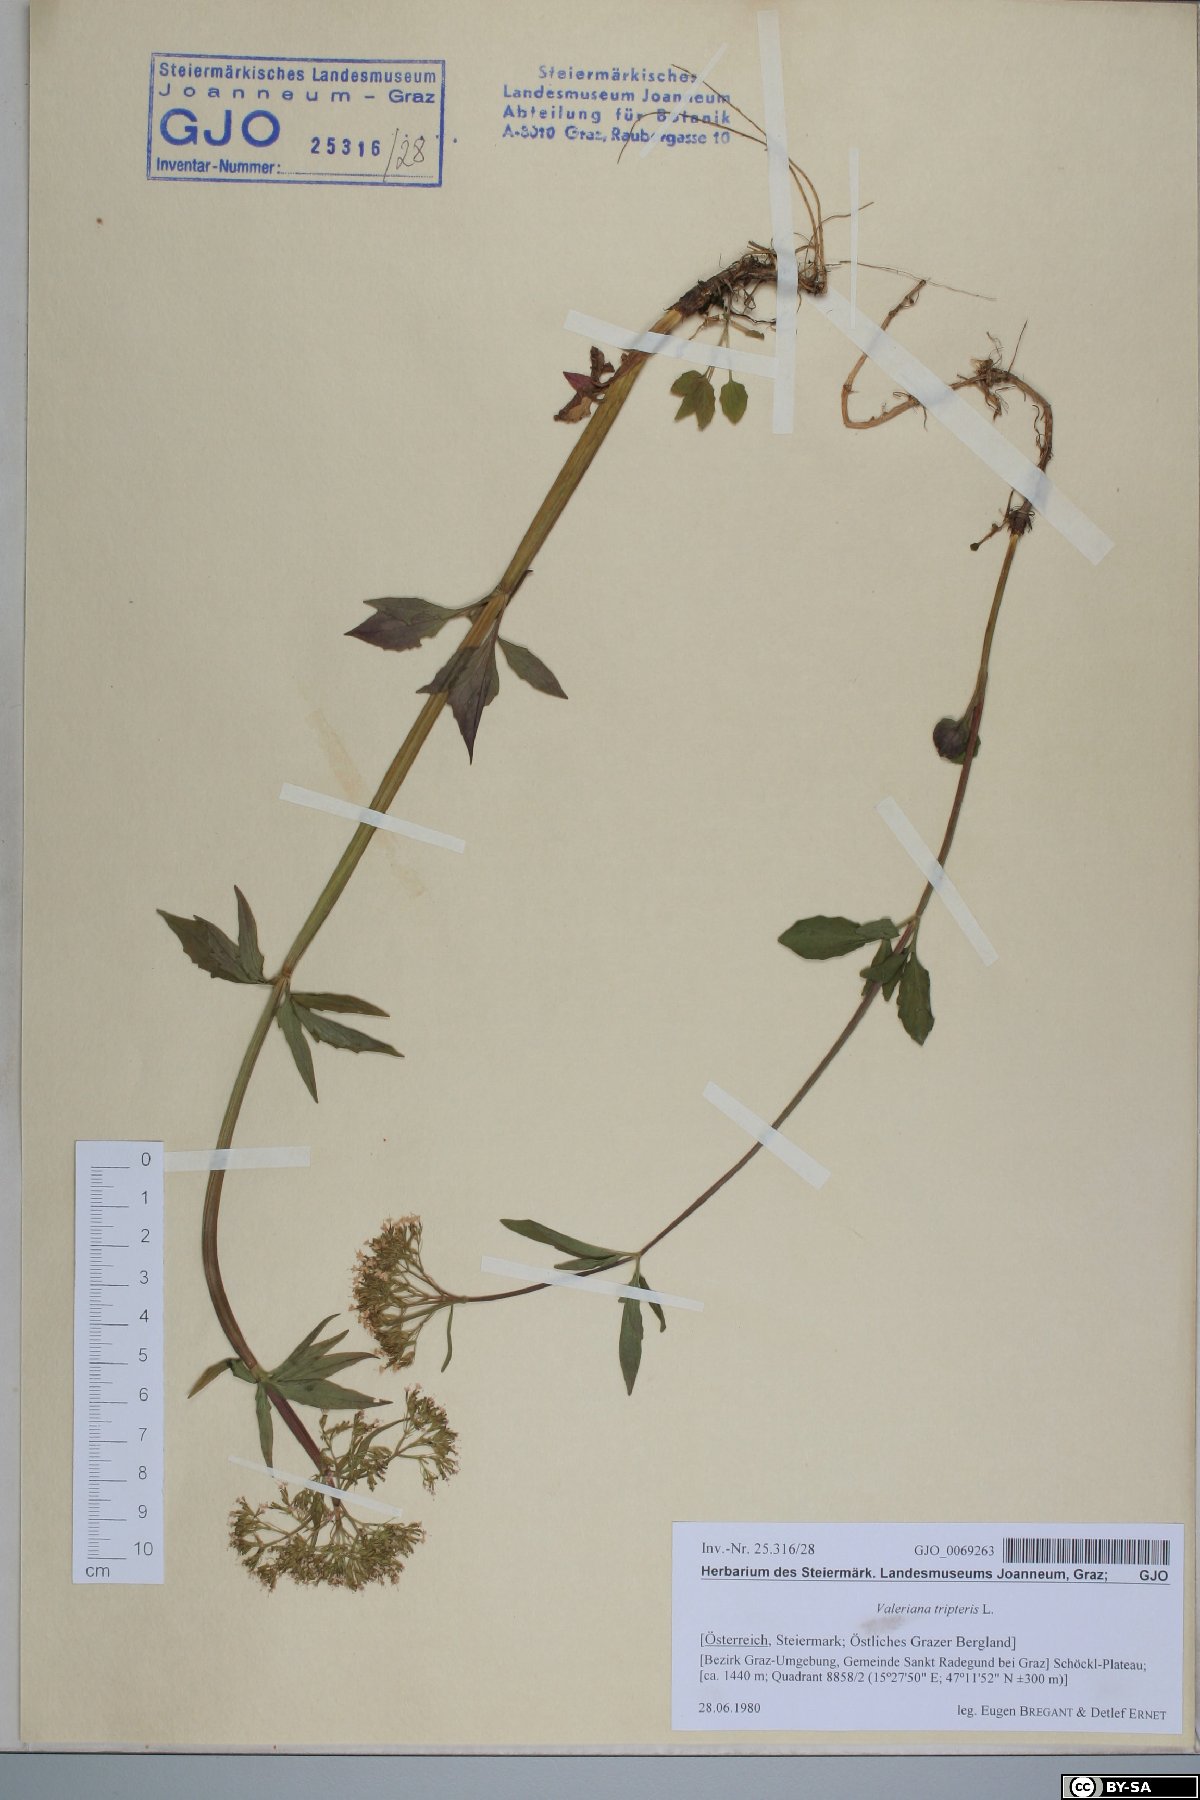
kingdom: Plantae
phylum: Tracheophyta
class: Magnoliopsida
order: Dipsacales
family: Caprifoliaceae
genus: Valeriana
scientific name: Valeriana tripteris
